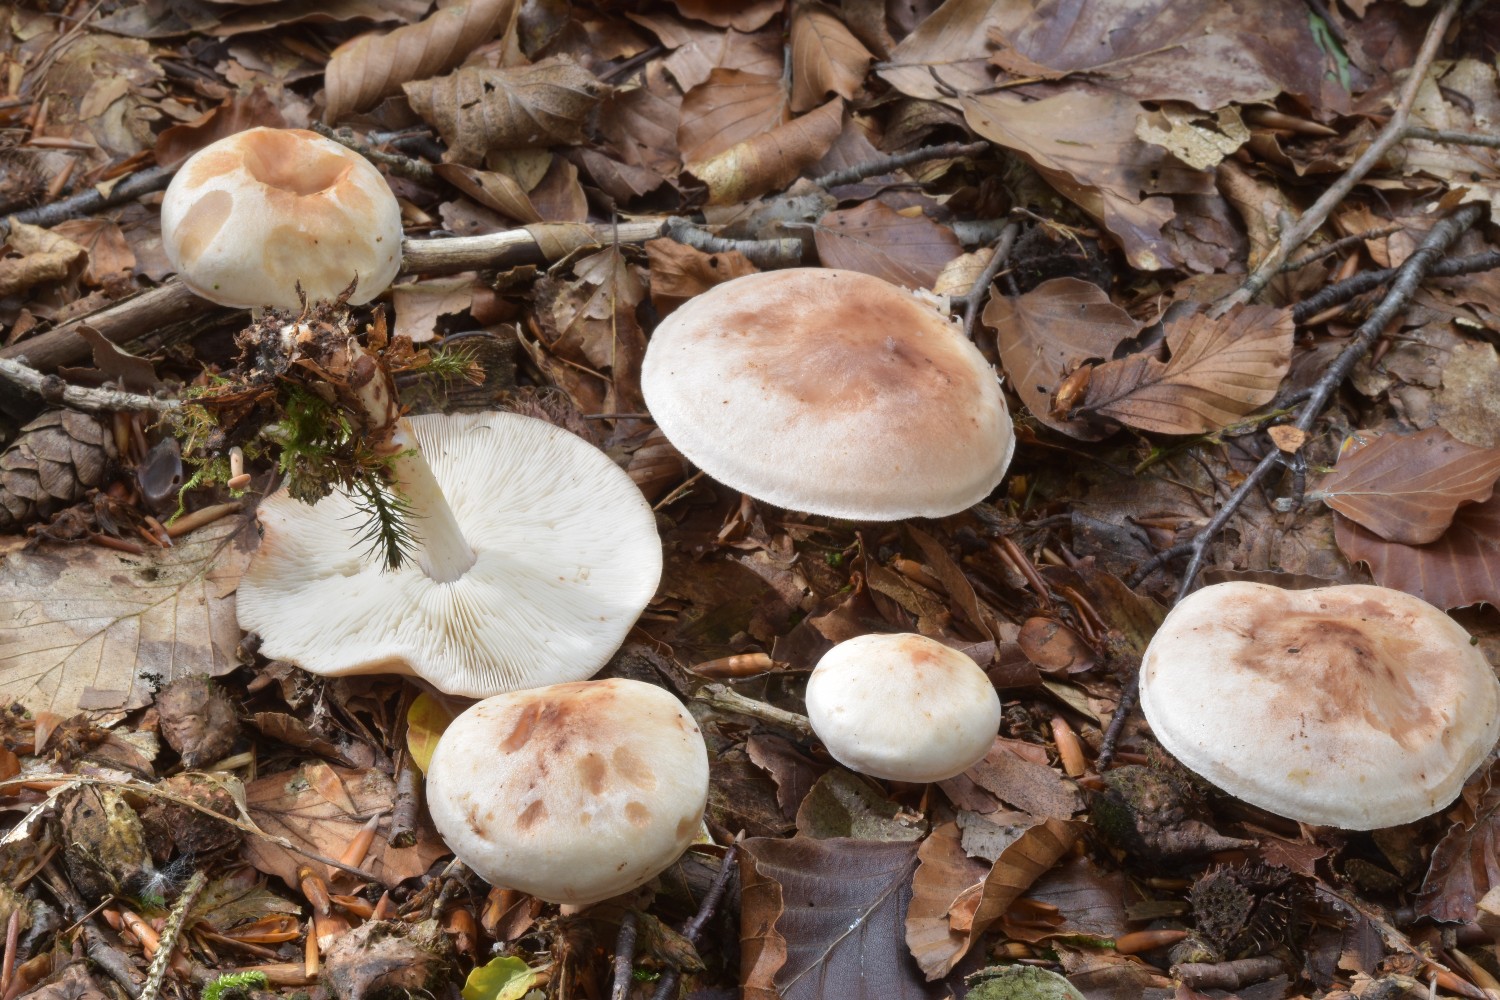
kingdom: Fungi
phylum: Basidiomycota
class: Agaricomycetes
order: Agaricales
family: Omphalotaceae
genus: Rhodocollybia
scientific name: Rhodocollybia maculata
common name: plettet fladhat
